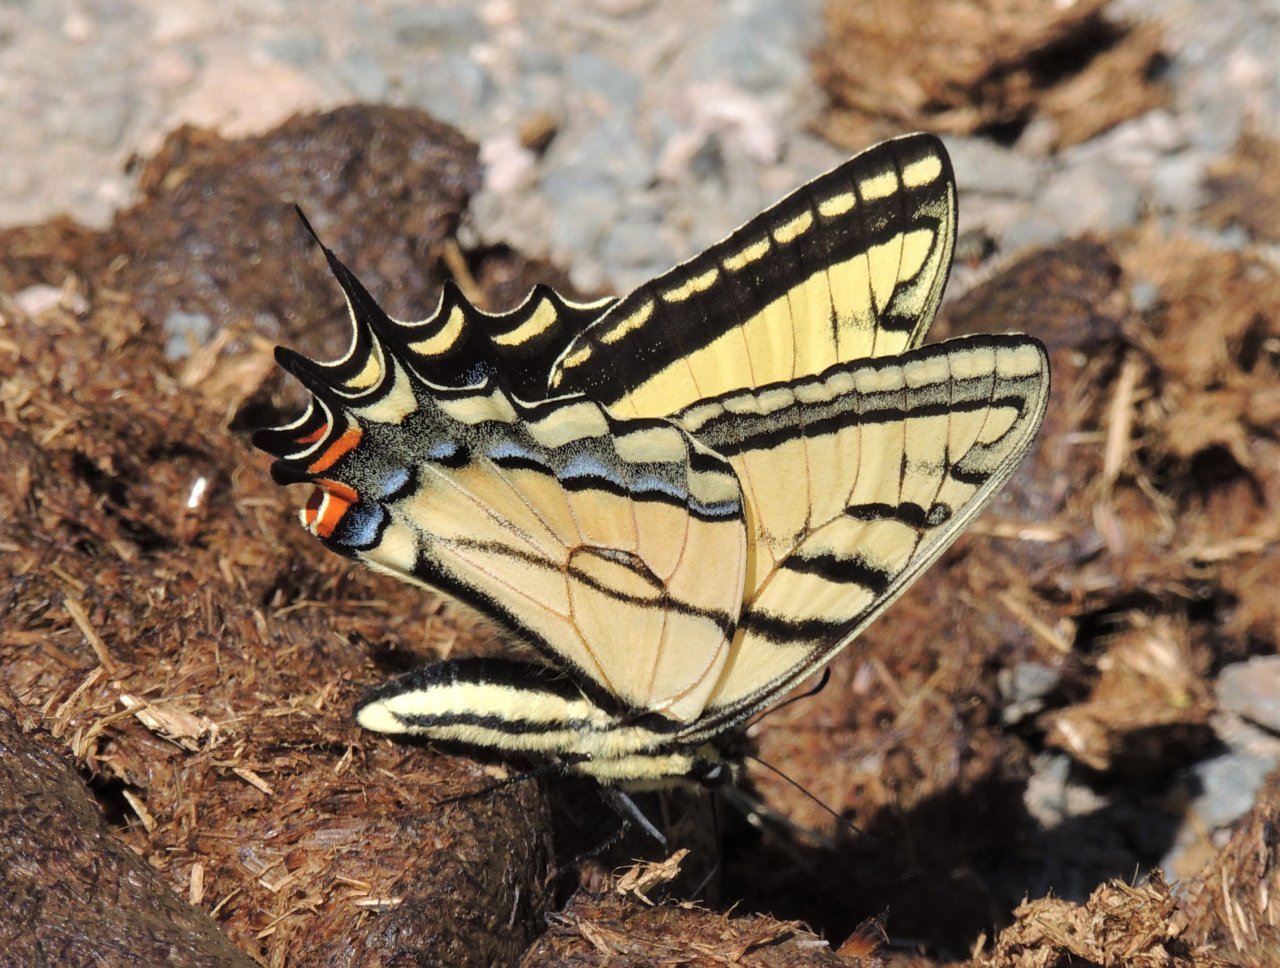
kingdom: Animalia
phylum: Arthropoda
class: Insecta
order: Lepidoptera
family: Papilionidae
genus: Papilio
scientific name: Papilio multicaudata
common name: Two-tailed Swallowtail
